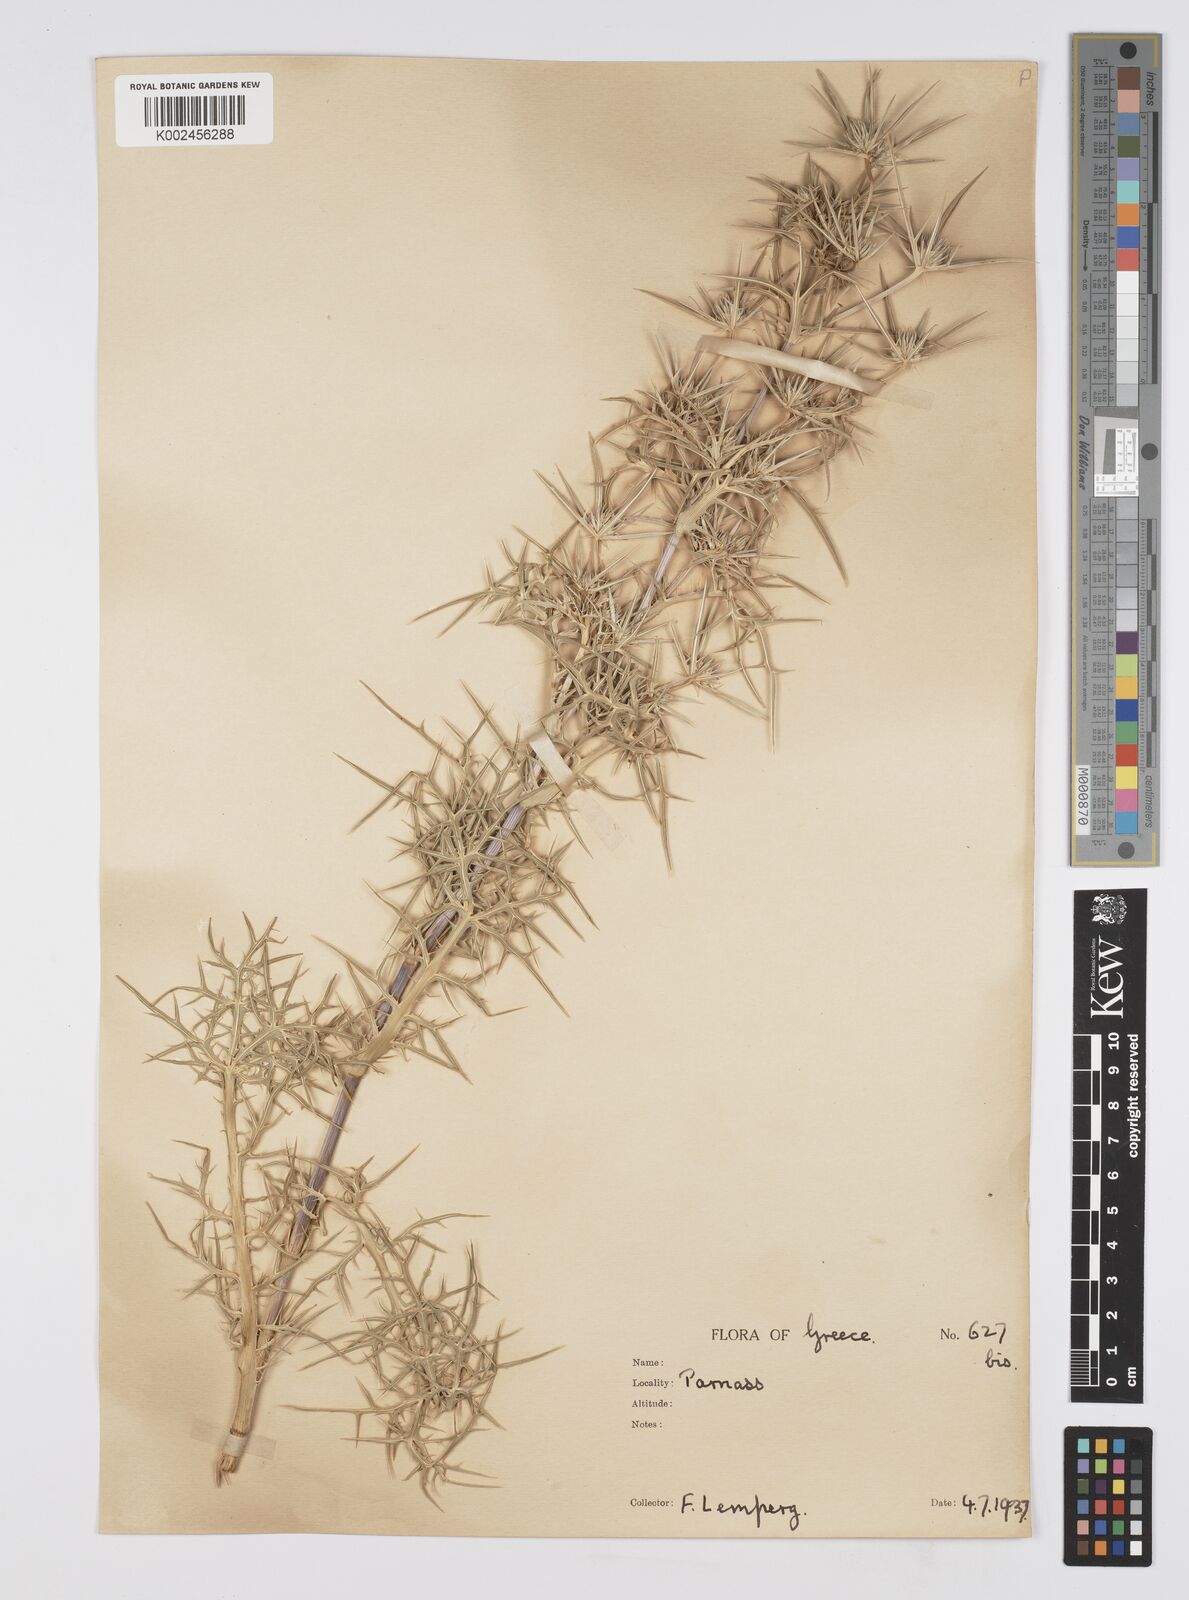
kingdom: Plantae
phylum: Tracheophyta
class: Magnoliopsida
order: Apiales
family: Apiaceae
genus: Eryngium
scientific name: Eryngium amethystinum
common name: Amethyst eryngo
